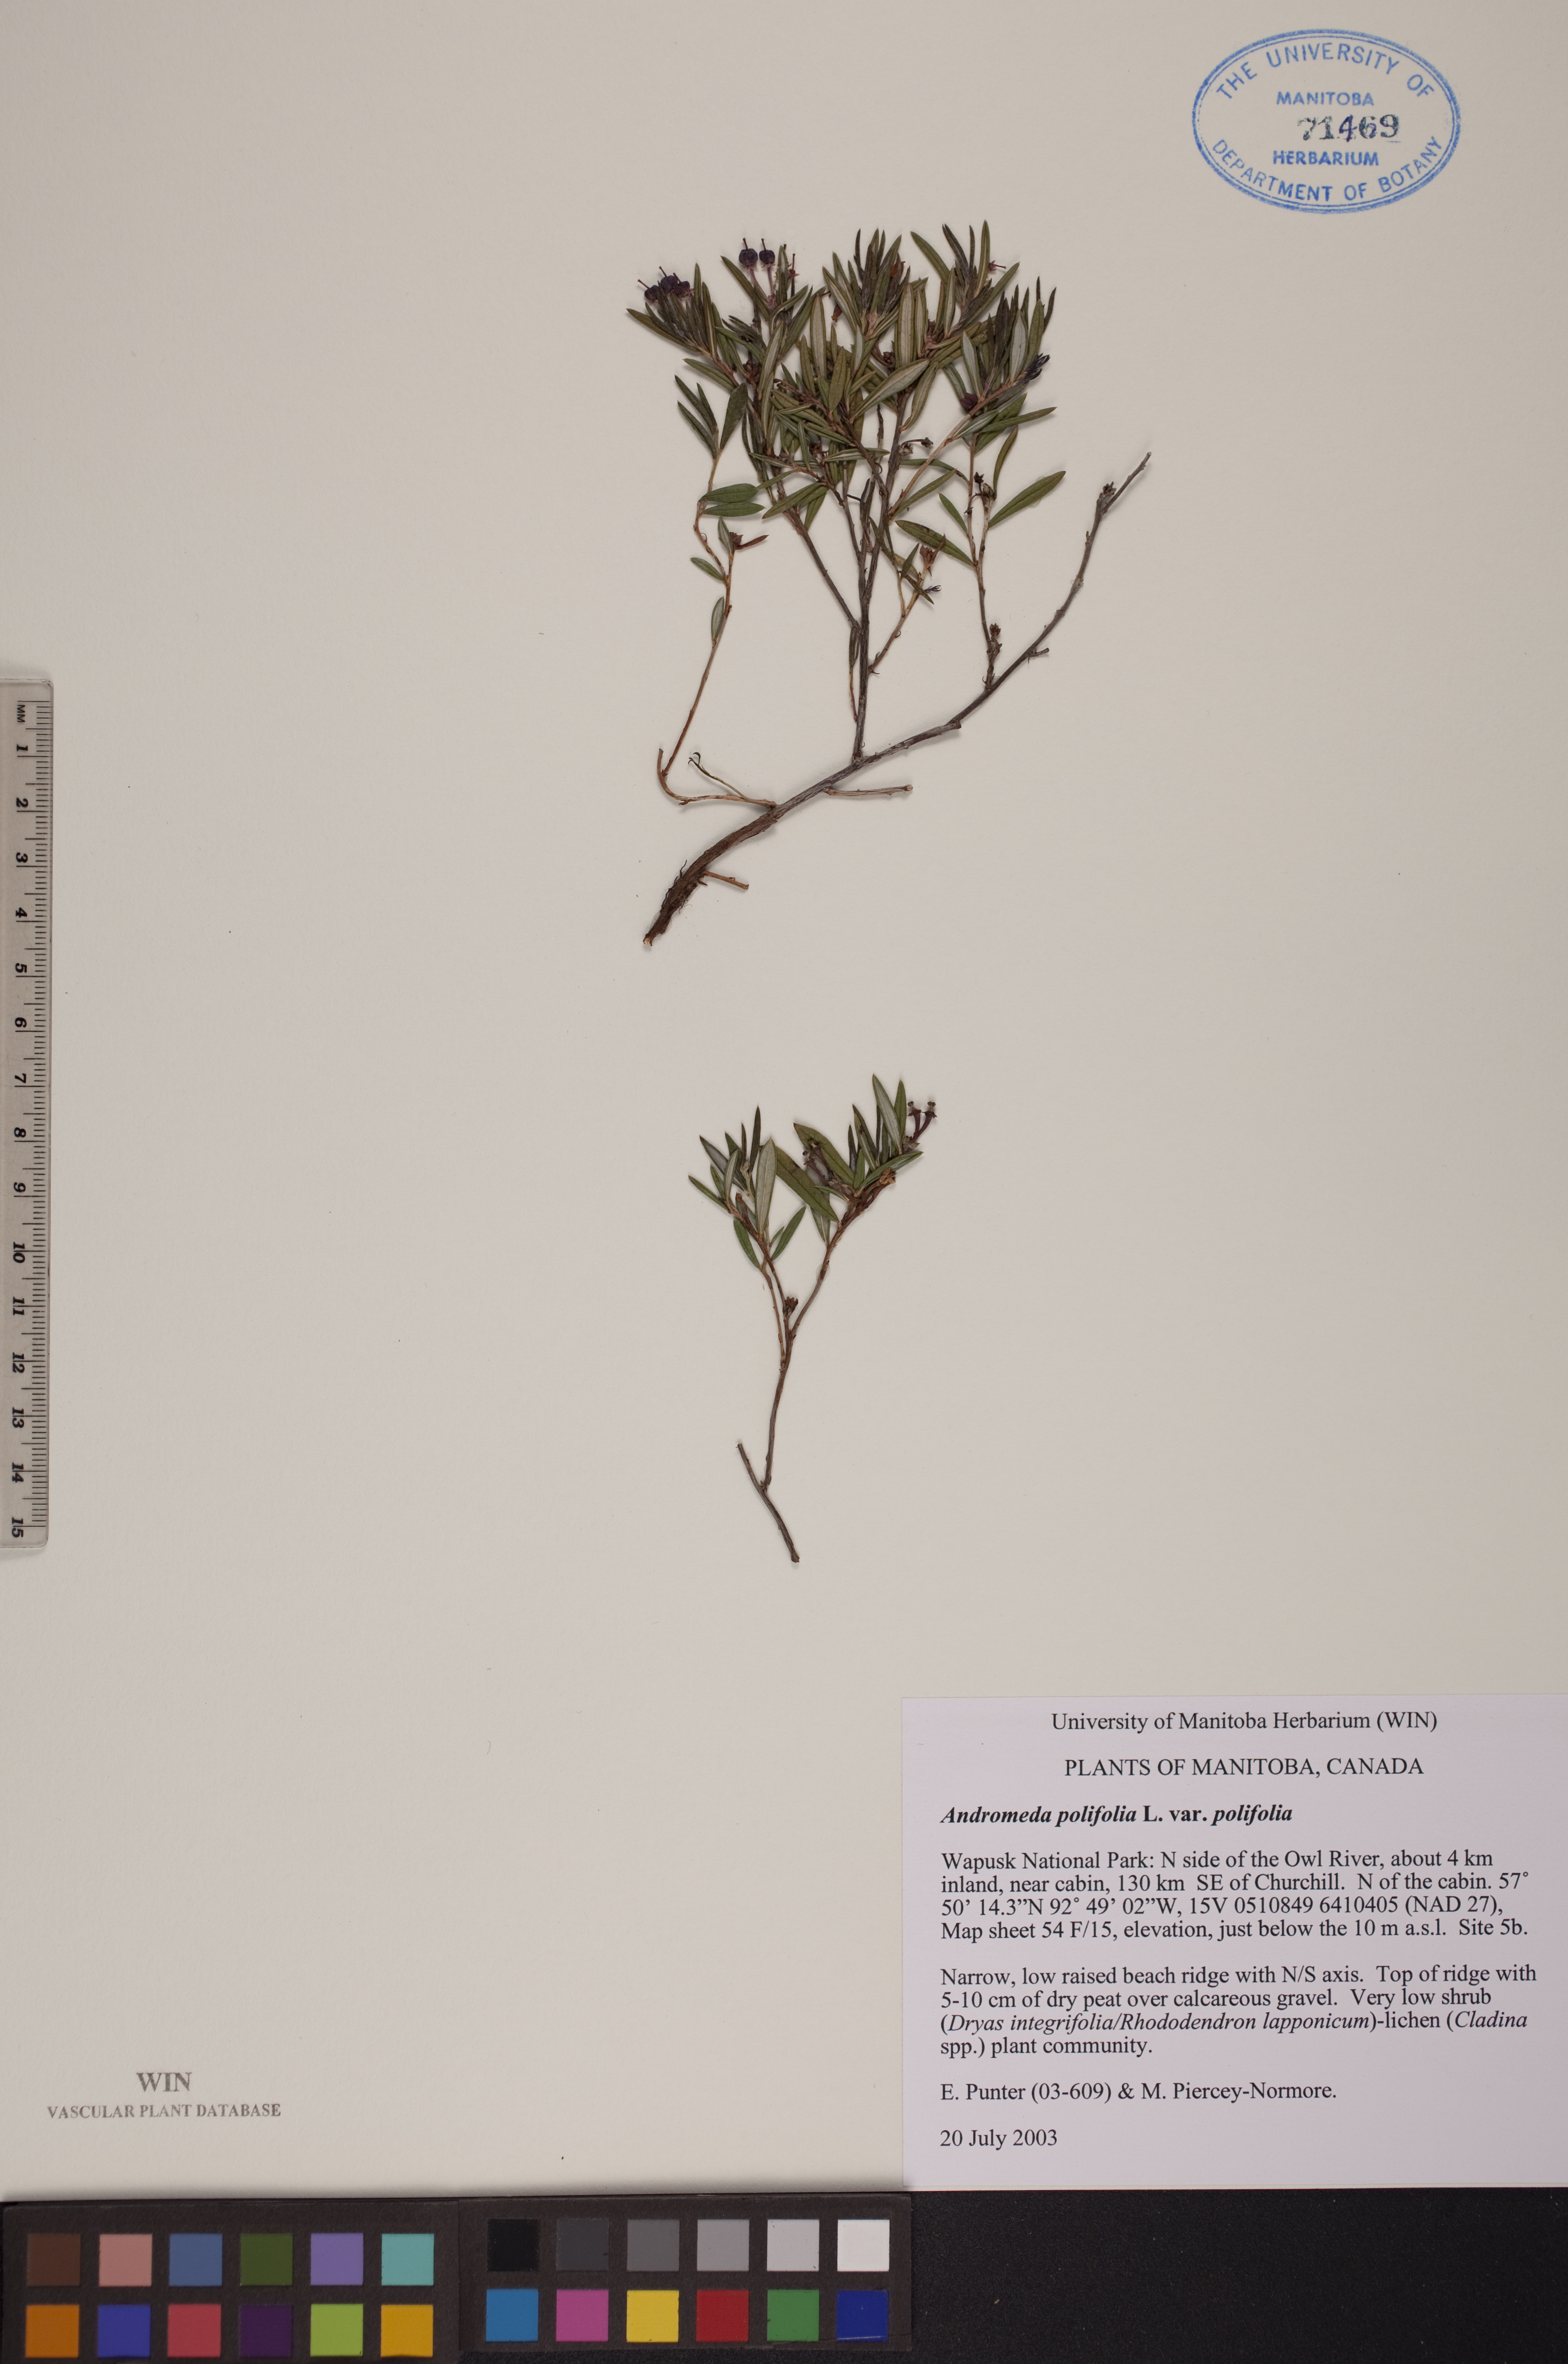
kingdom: Plantae
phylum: Tracheophyta
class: Magnoliopsida
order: Ericales
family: Ericaceae
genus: Andromeda
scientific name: Andromeda polifolia
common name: Bog-rosemary
